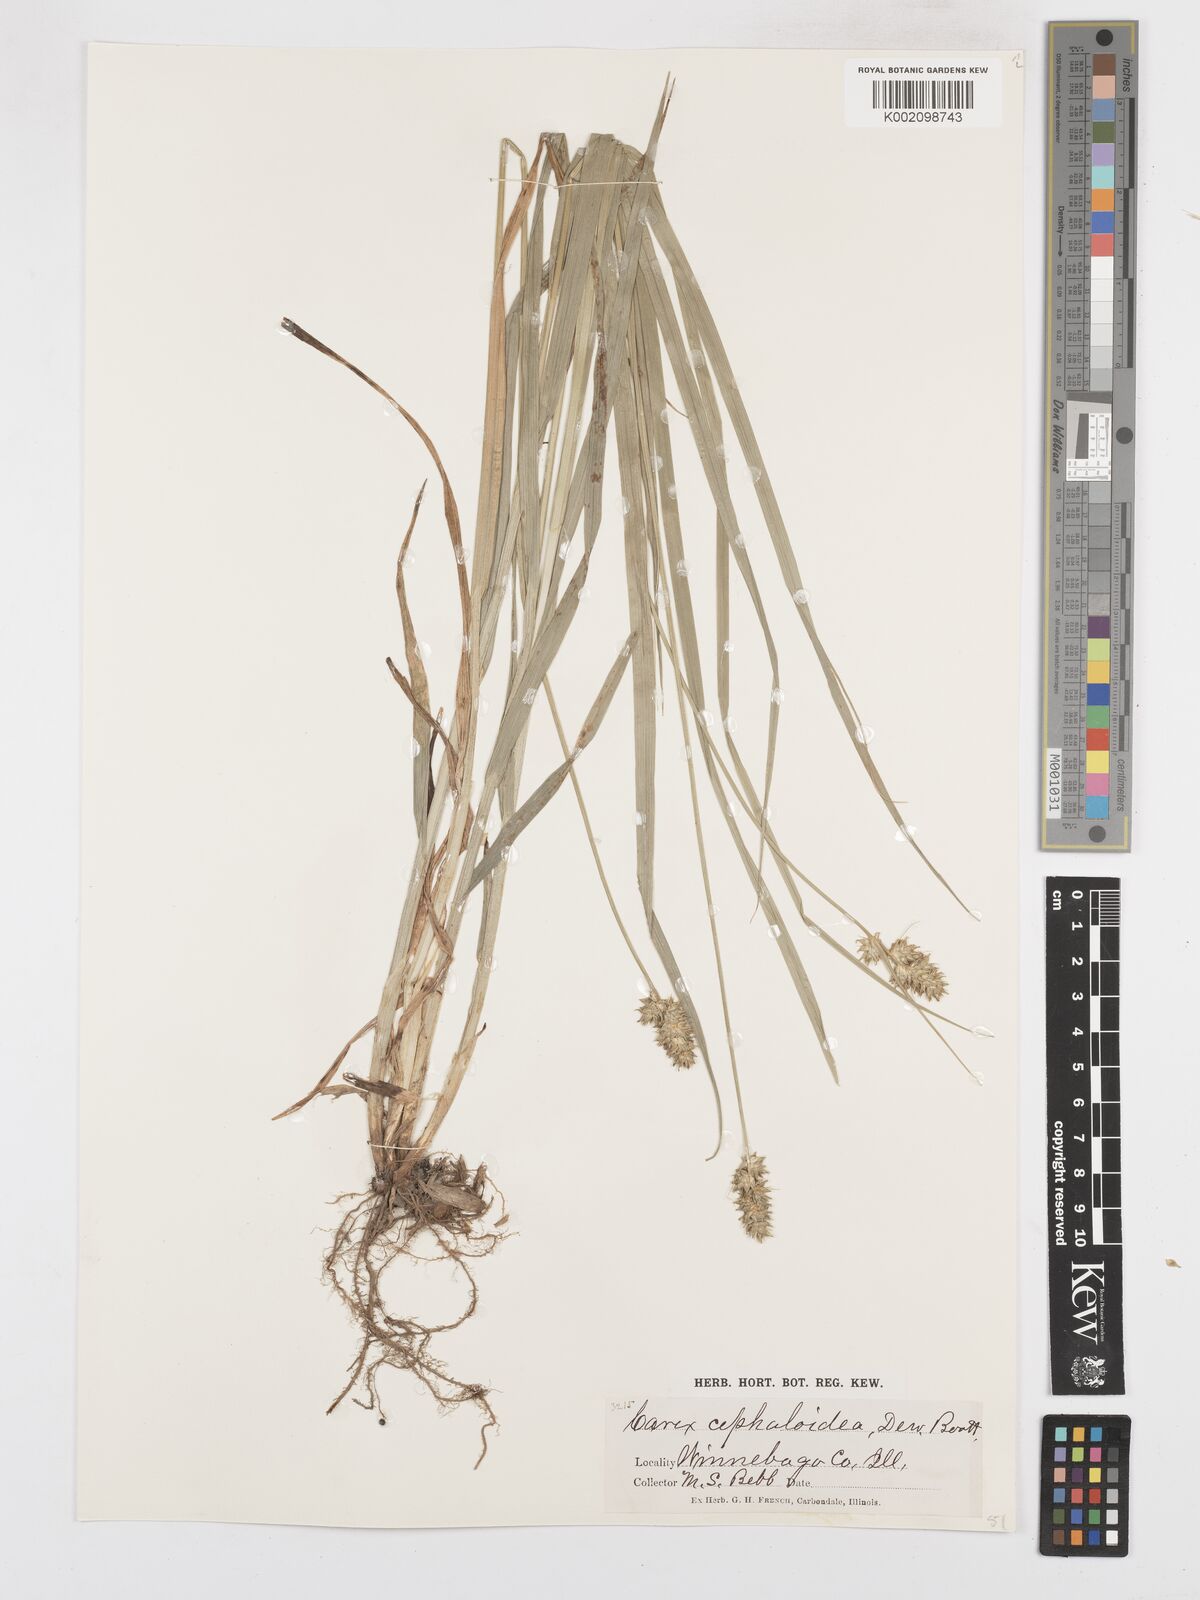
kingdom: Plantae
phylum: Tracheophyta
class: Liliopsida
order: Poales
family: Cyperaceae
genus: Carex
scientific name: Carex cephaloidea
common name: Thin-leaved sedge
